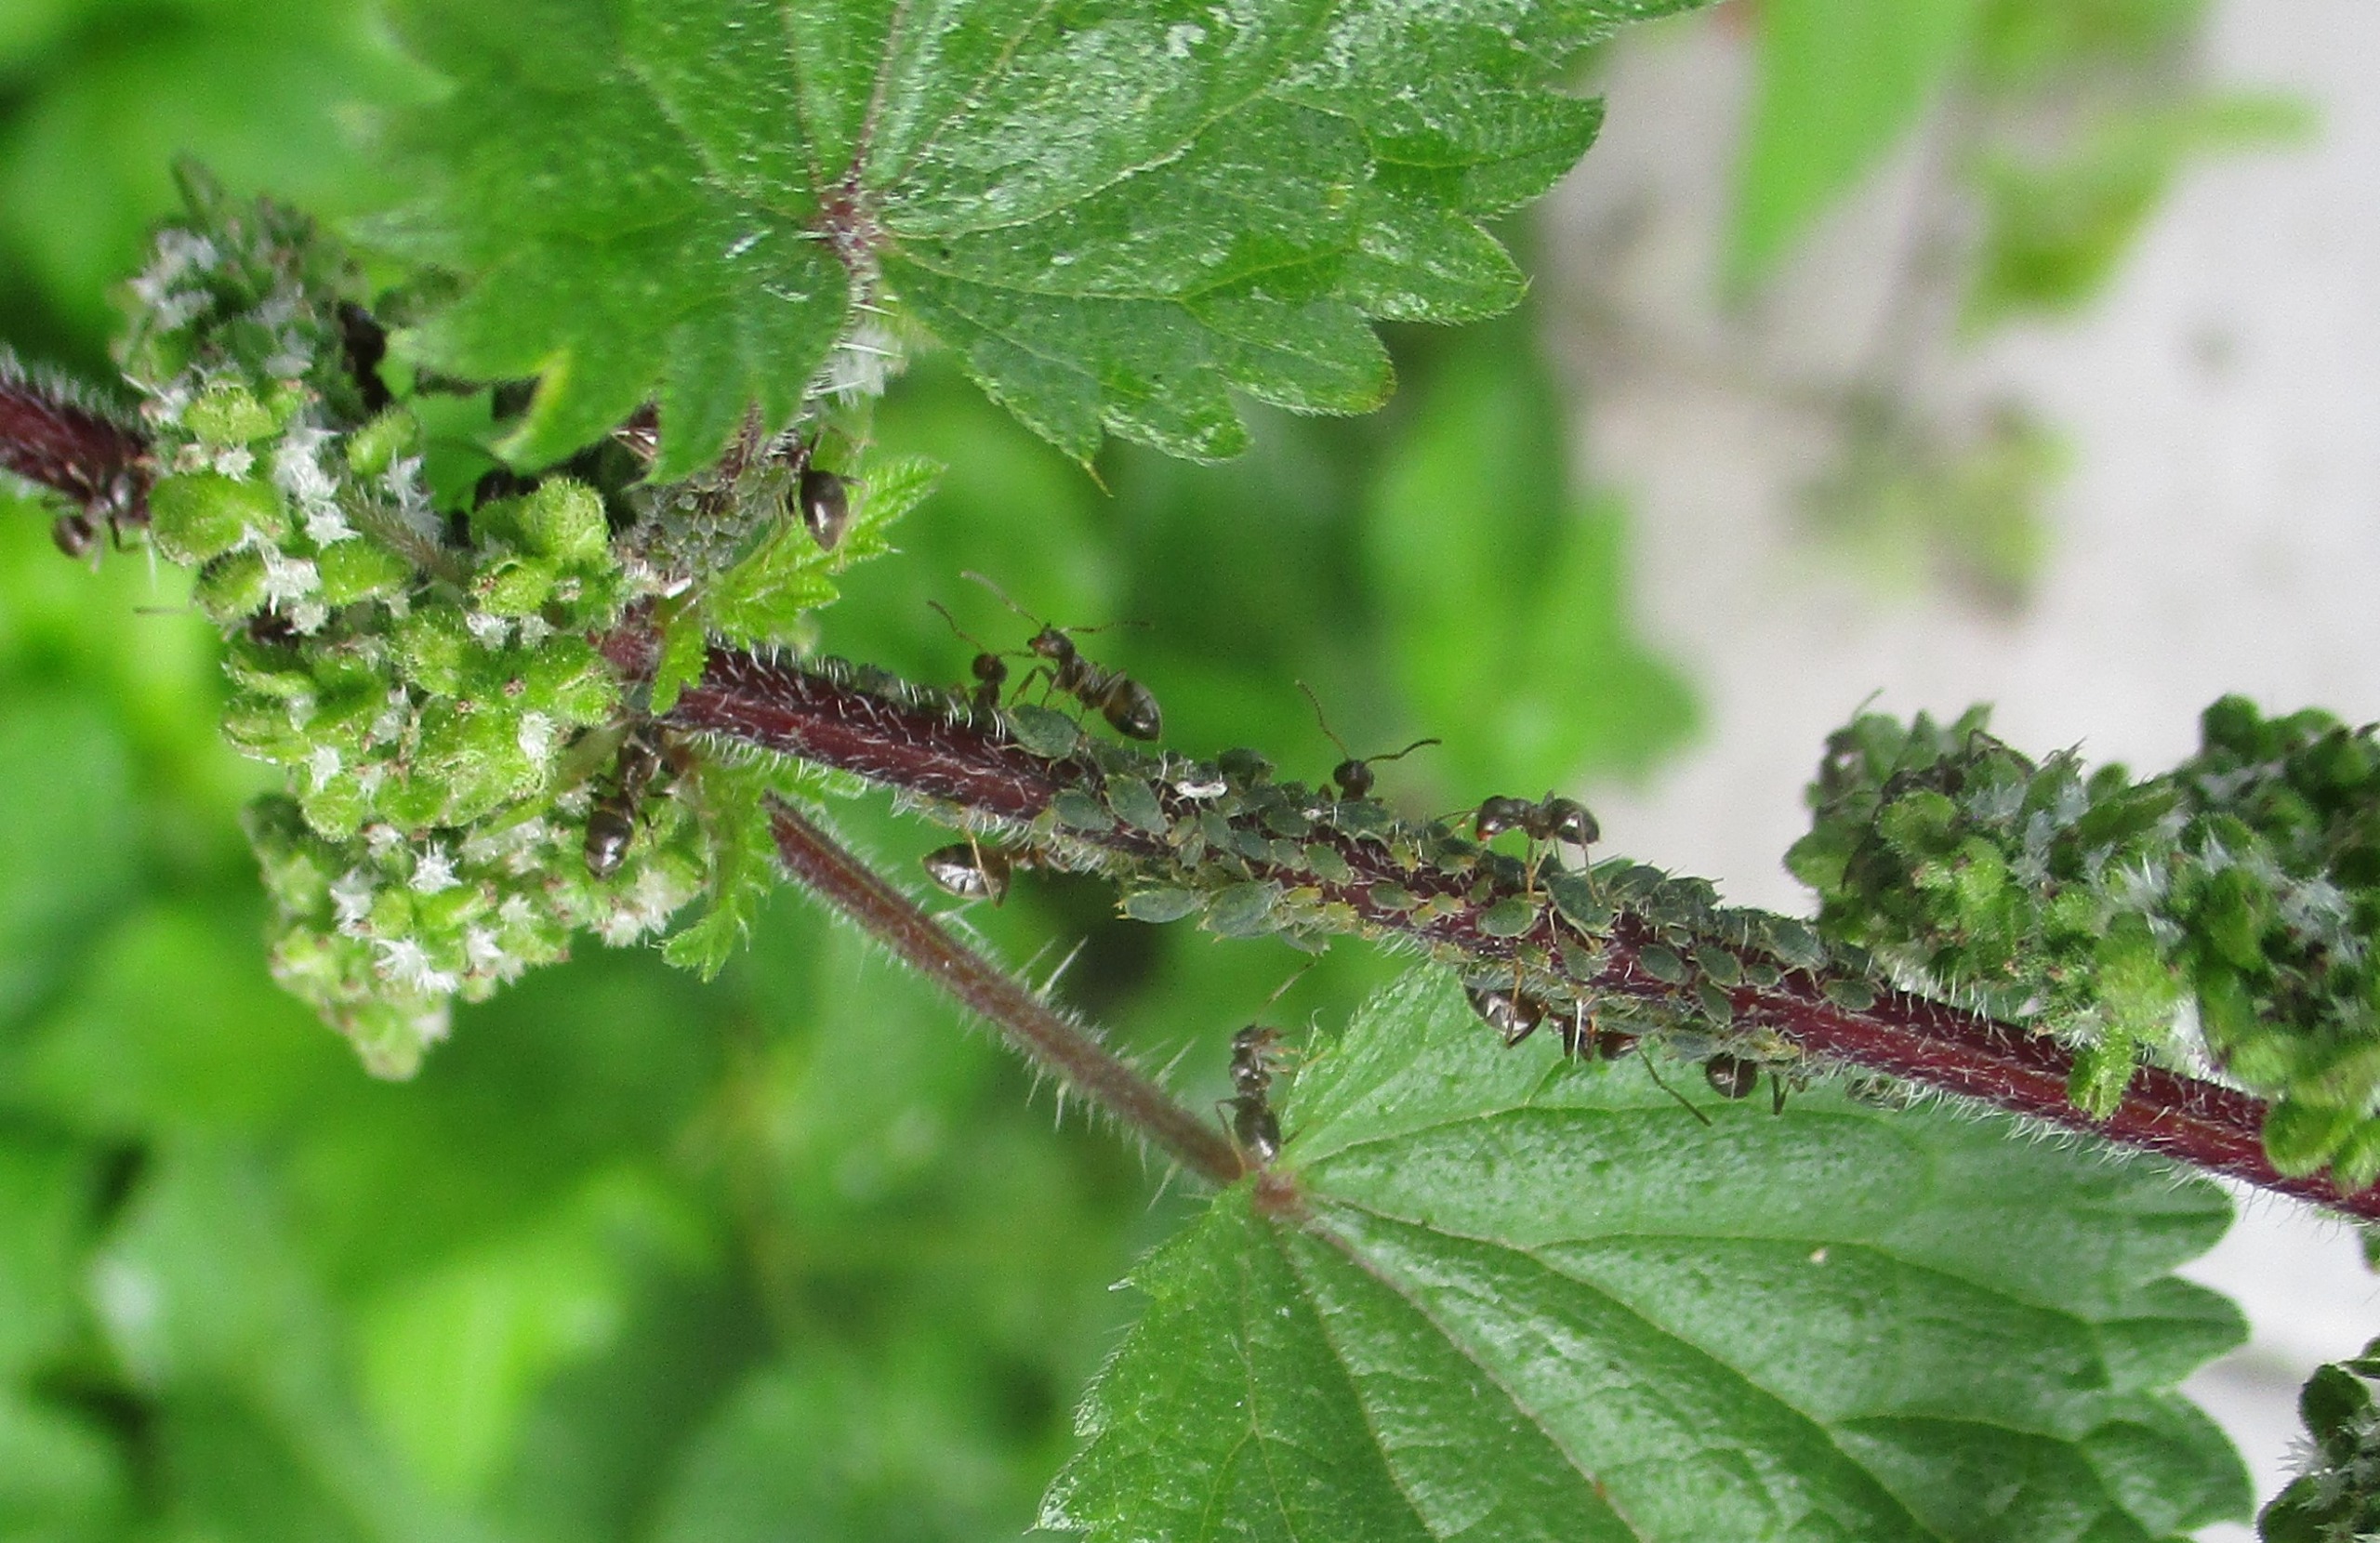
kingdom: Animalia
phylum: Arthropoda
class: Insecta
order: Hemiptera
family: Aphididae
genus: Aphis
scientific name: Aphis urticata
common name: Lille nældebladlus
